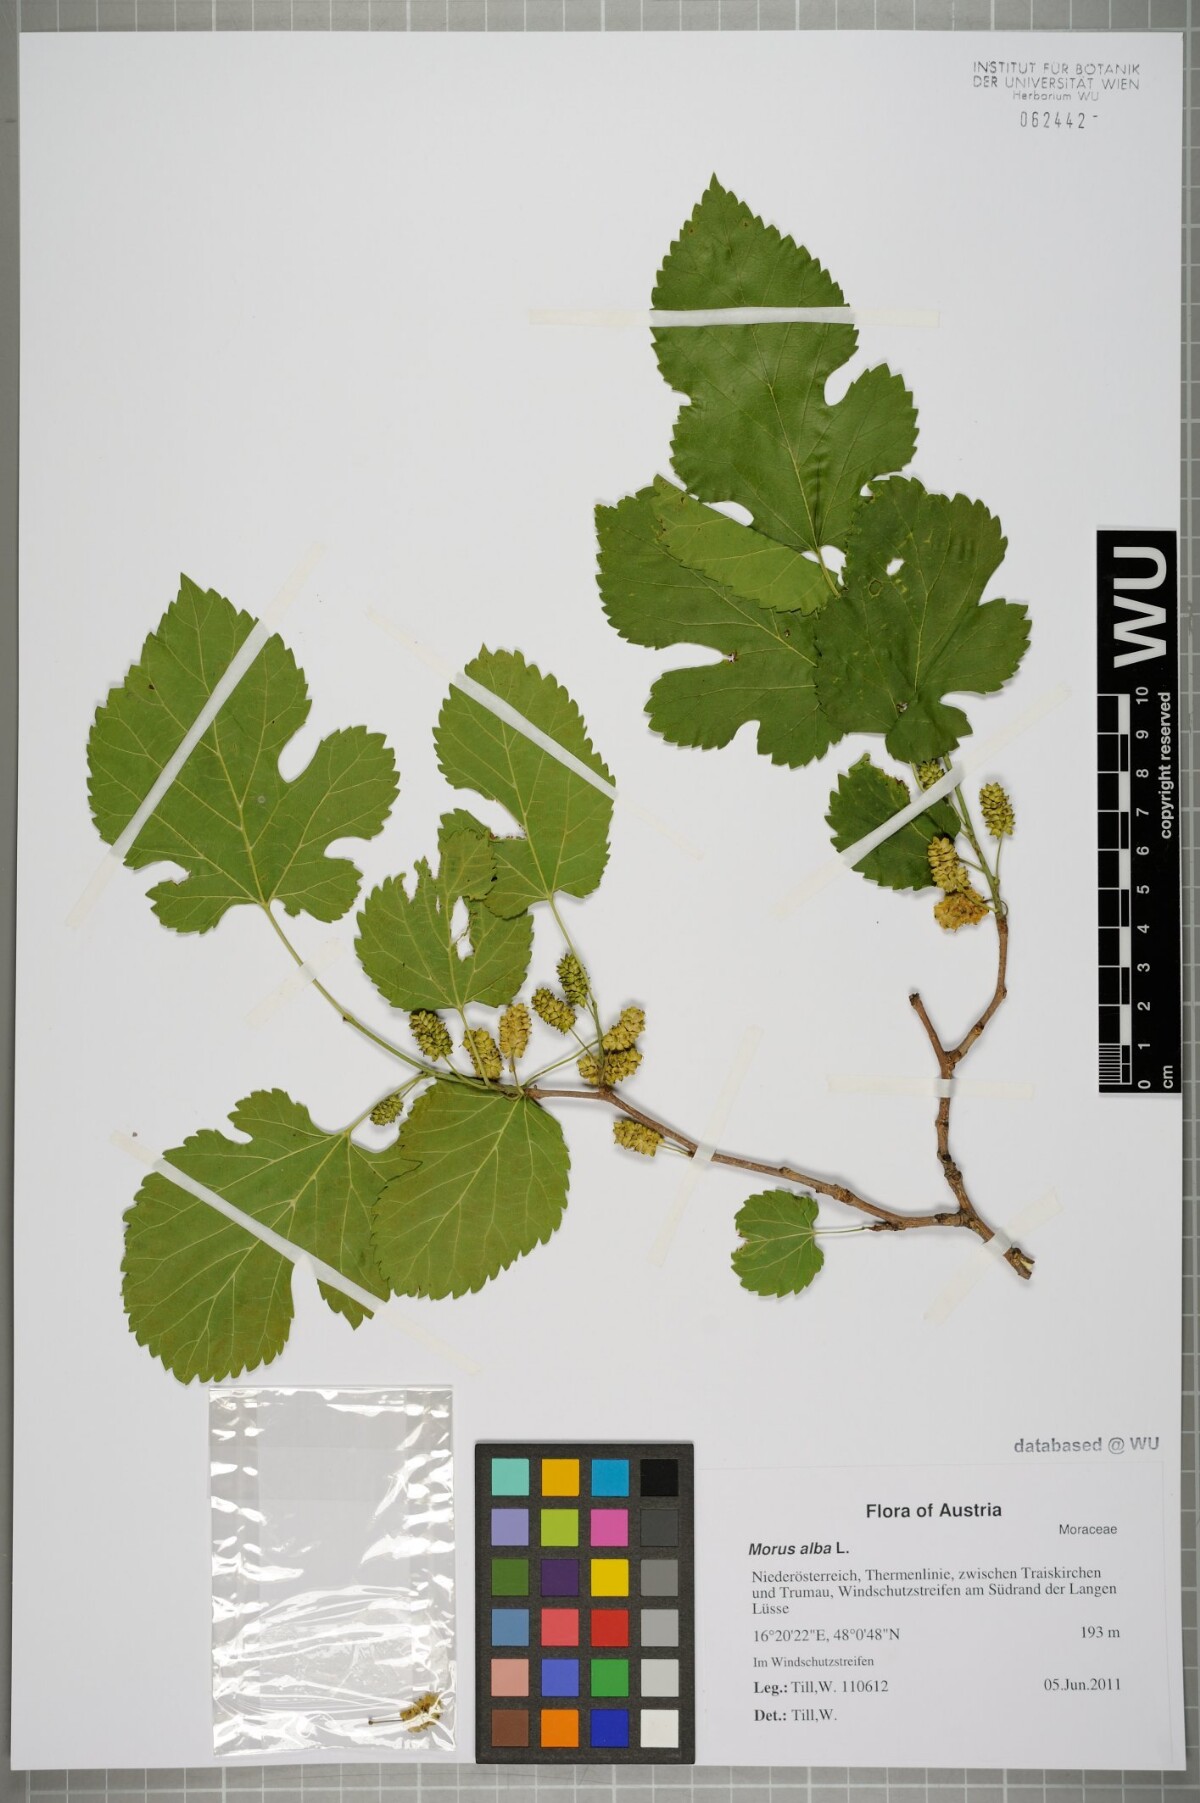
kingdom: Plantae
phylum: Tracheophyta
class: Magnoliopsida
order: Rosales
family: Moraceae
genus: Morus
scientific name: Morus alba
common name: White mulberry
